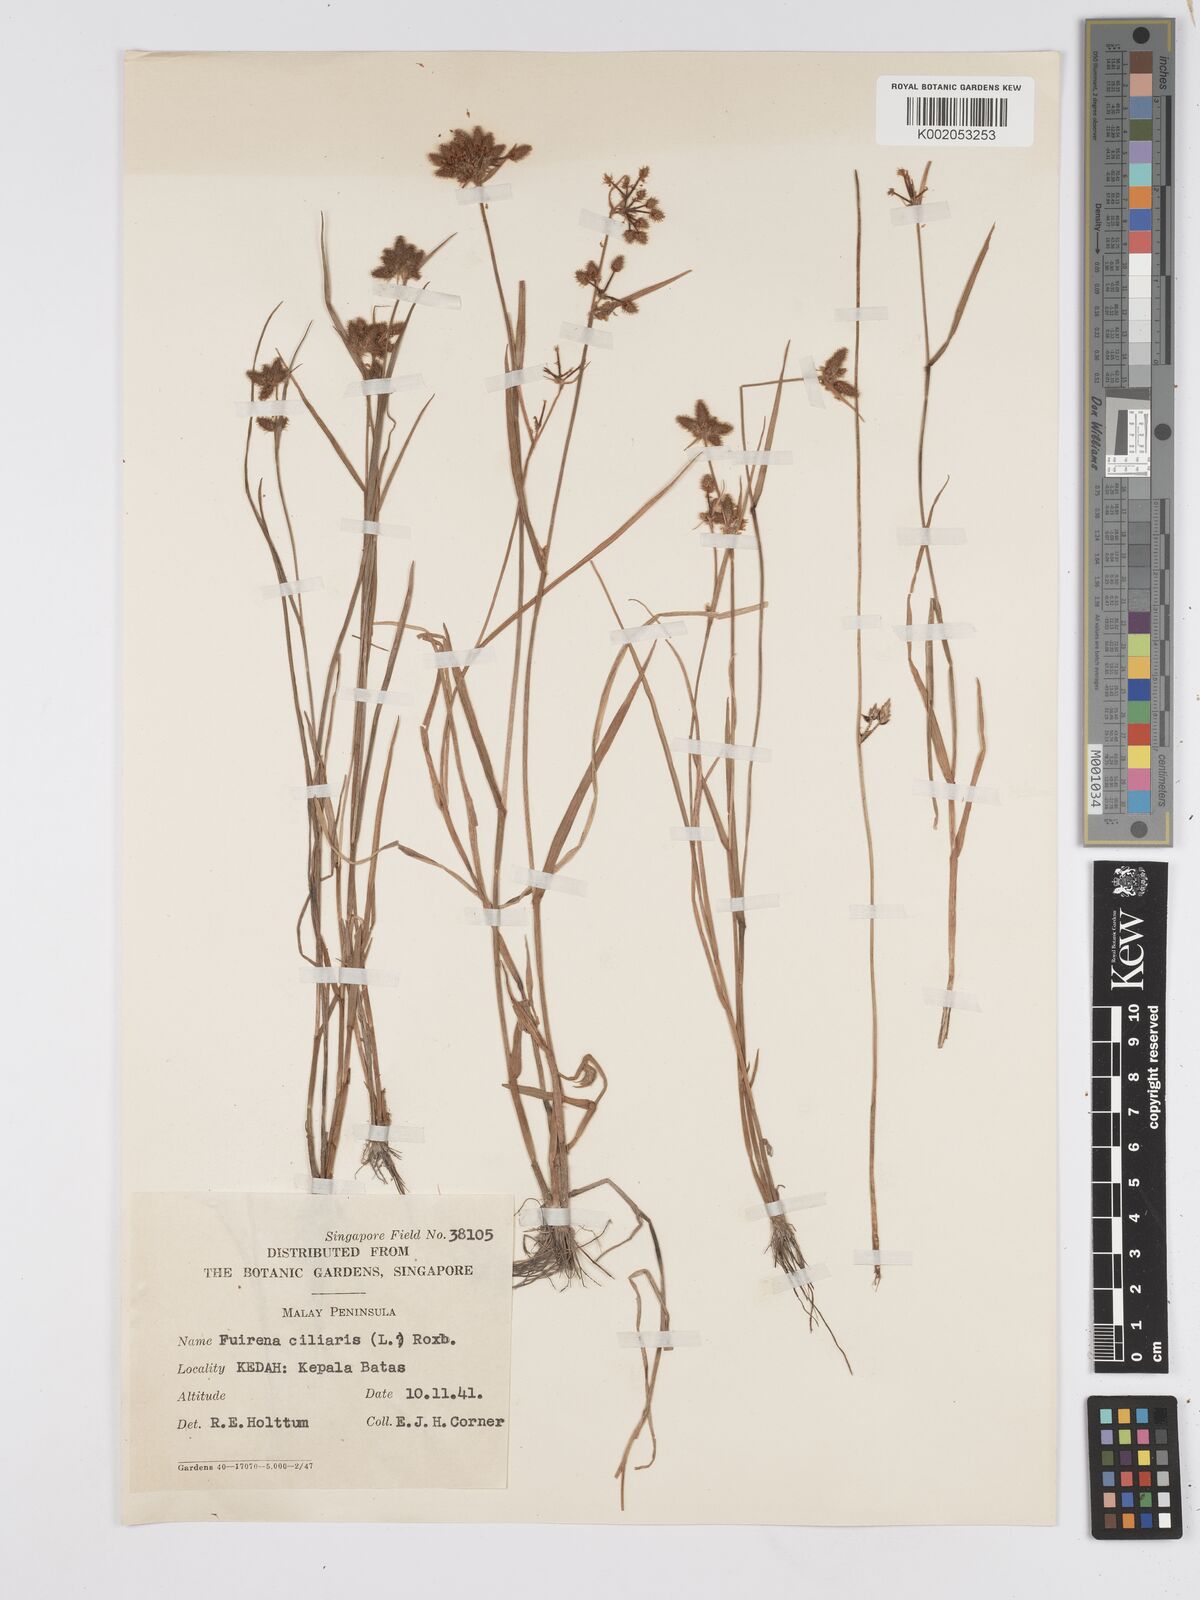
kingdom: Plantae
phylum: Tracheophyta
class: Liliopsida
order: Poales
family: Cyperaceae
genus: Fuirena
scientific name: Fuirena ciliaris
